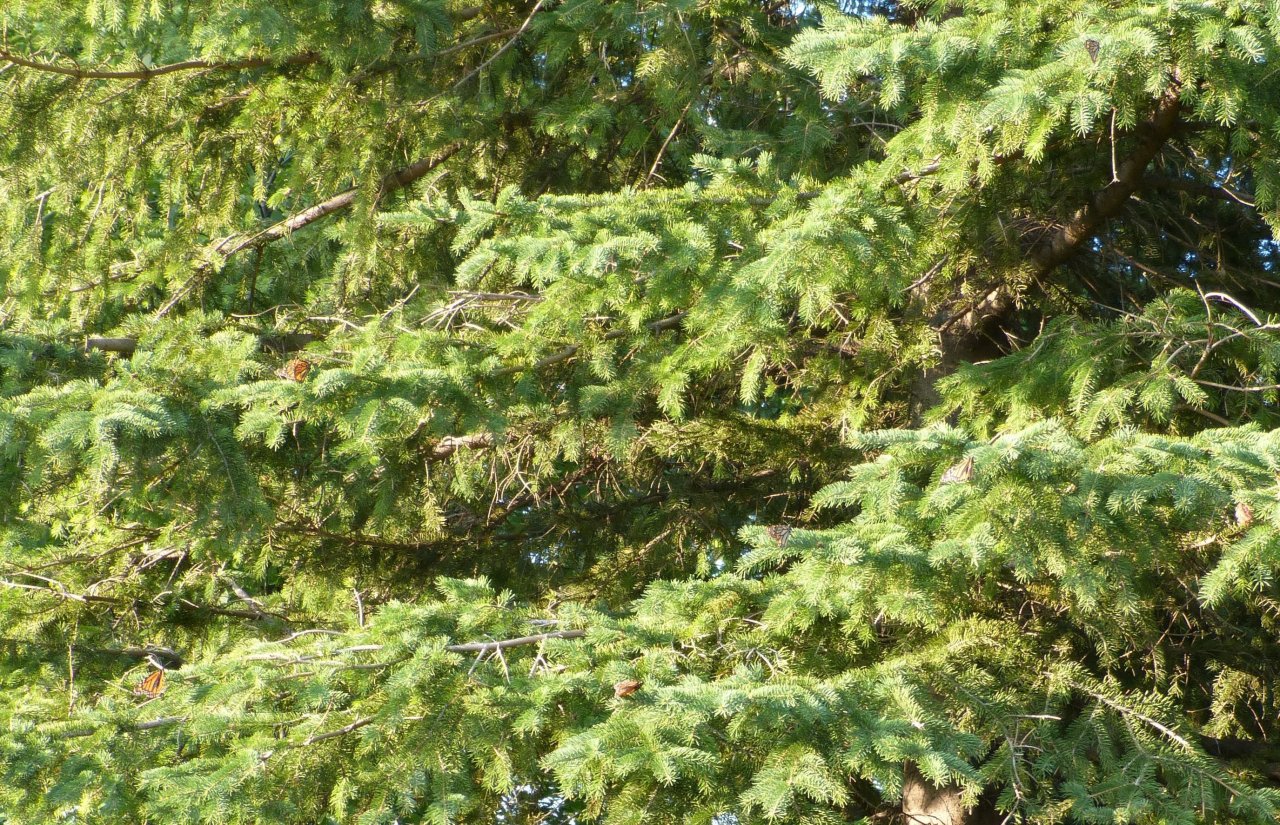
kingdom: Animalia
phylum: Arthropoda
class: Insecta
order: Lepidoptera
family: Nymphalidae
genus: Danaus
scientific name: Danaus plexippus
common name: Monarch
